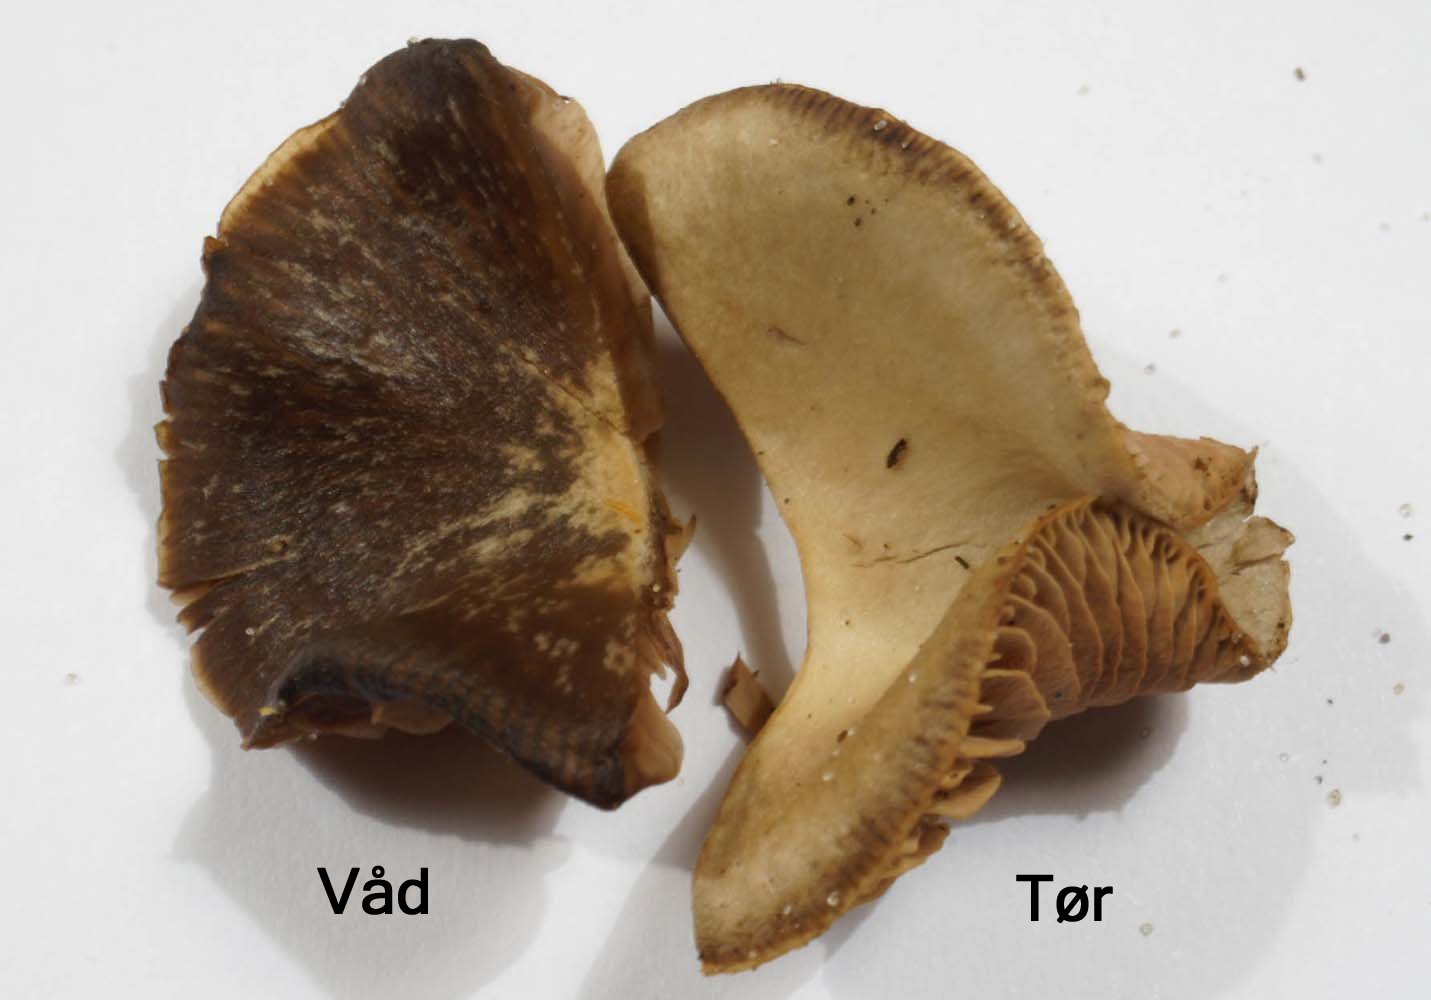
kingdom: Fungi
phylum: Basidiomycota
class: Agaricomycetes
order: Agaricales
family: Entolomataceae
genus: Entoloma
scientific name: Entoloma vindobonense
